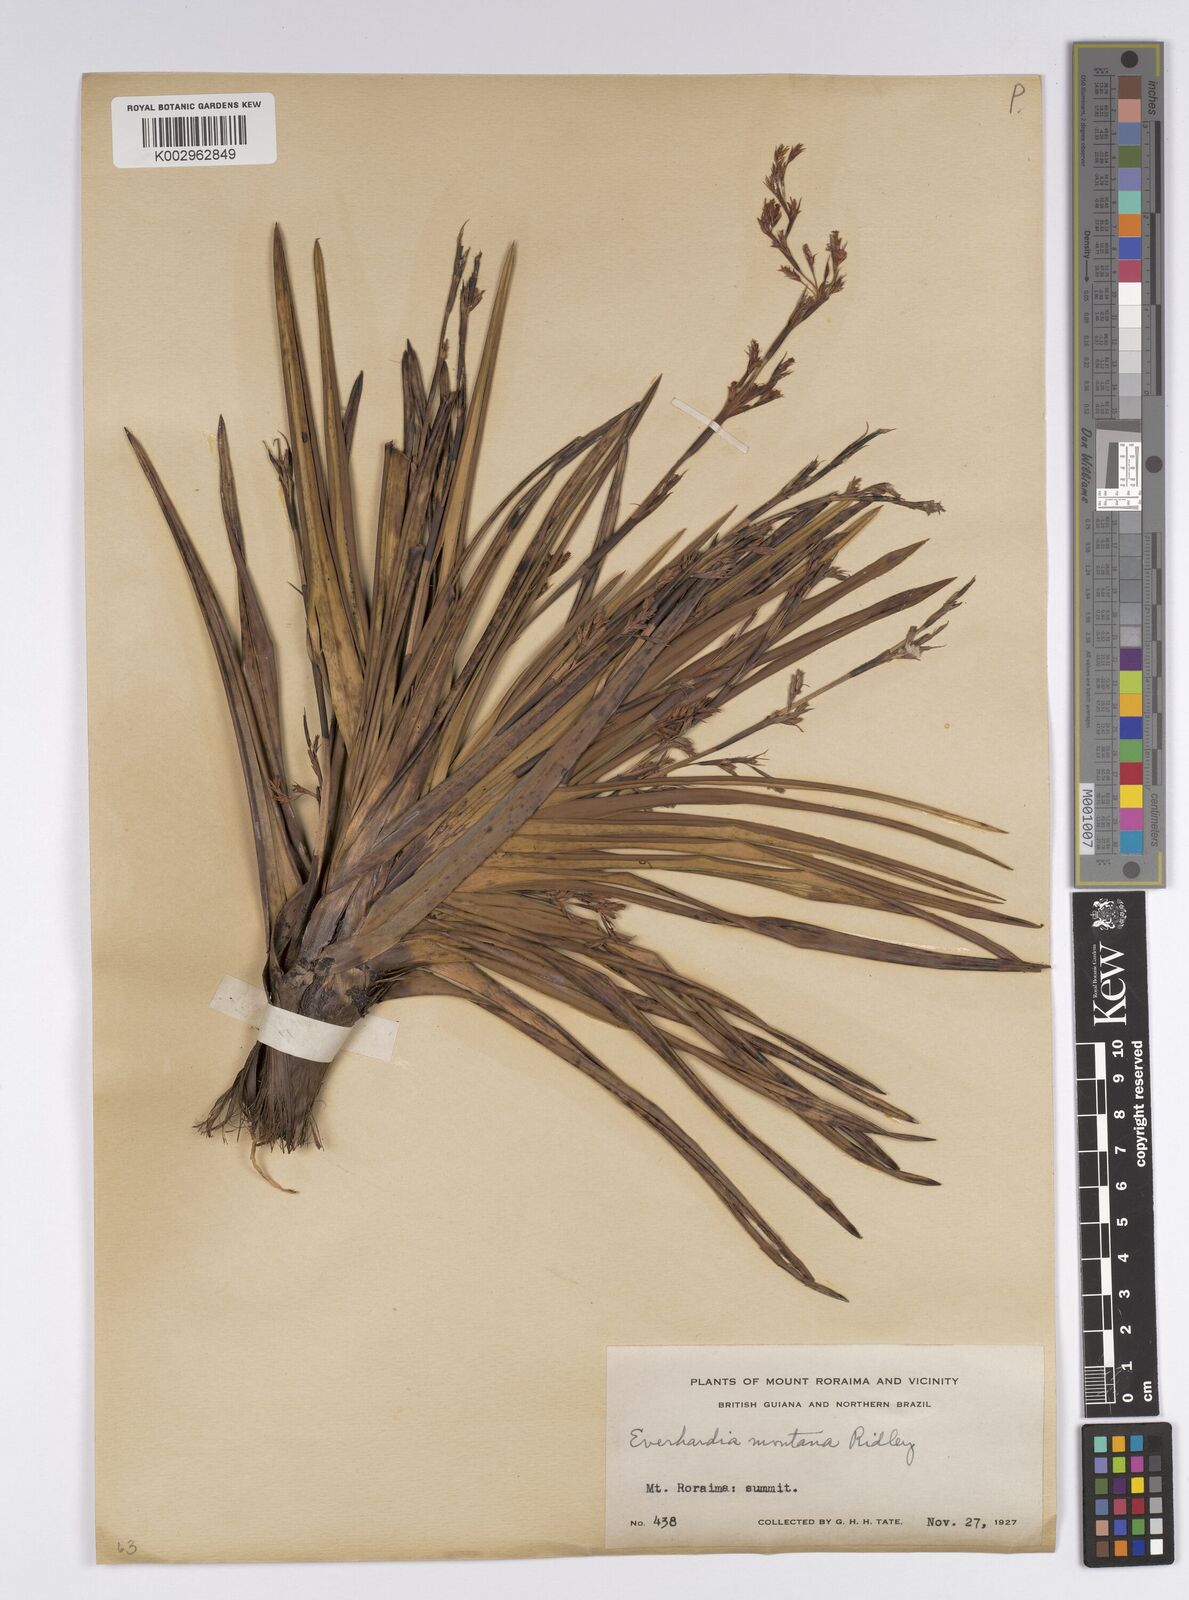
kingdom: Plantae
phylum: Tracheophyta
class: Liliopsida
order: Poales
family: Cyperaceae
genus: Cephalocarpus
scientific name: Cephalocarpus montanus
